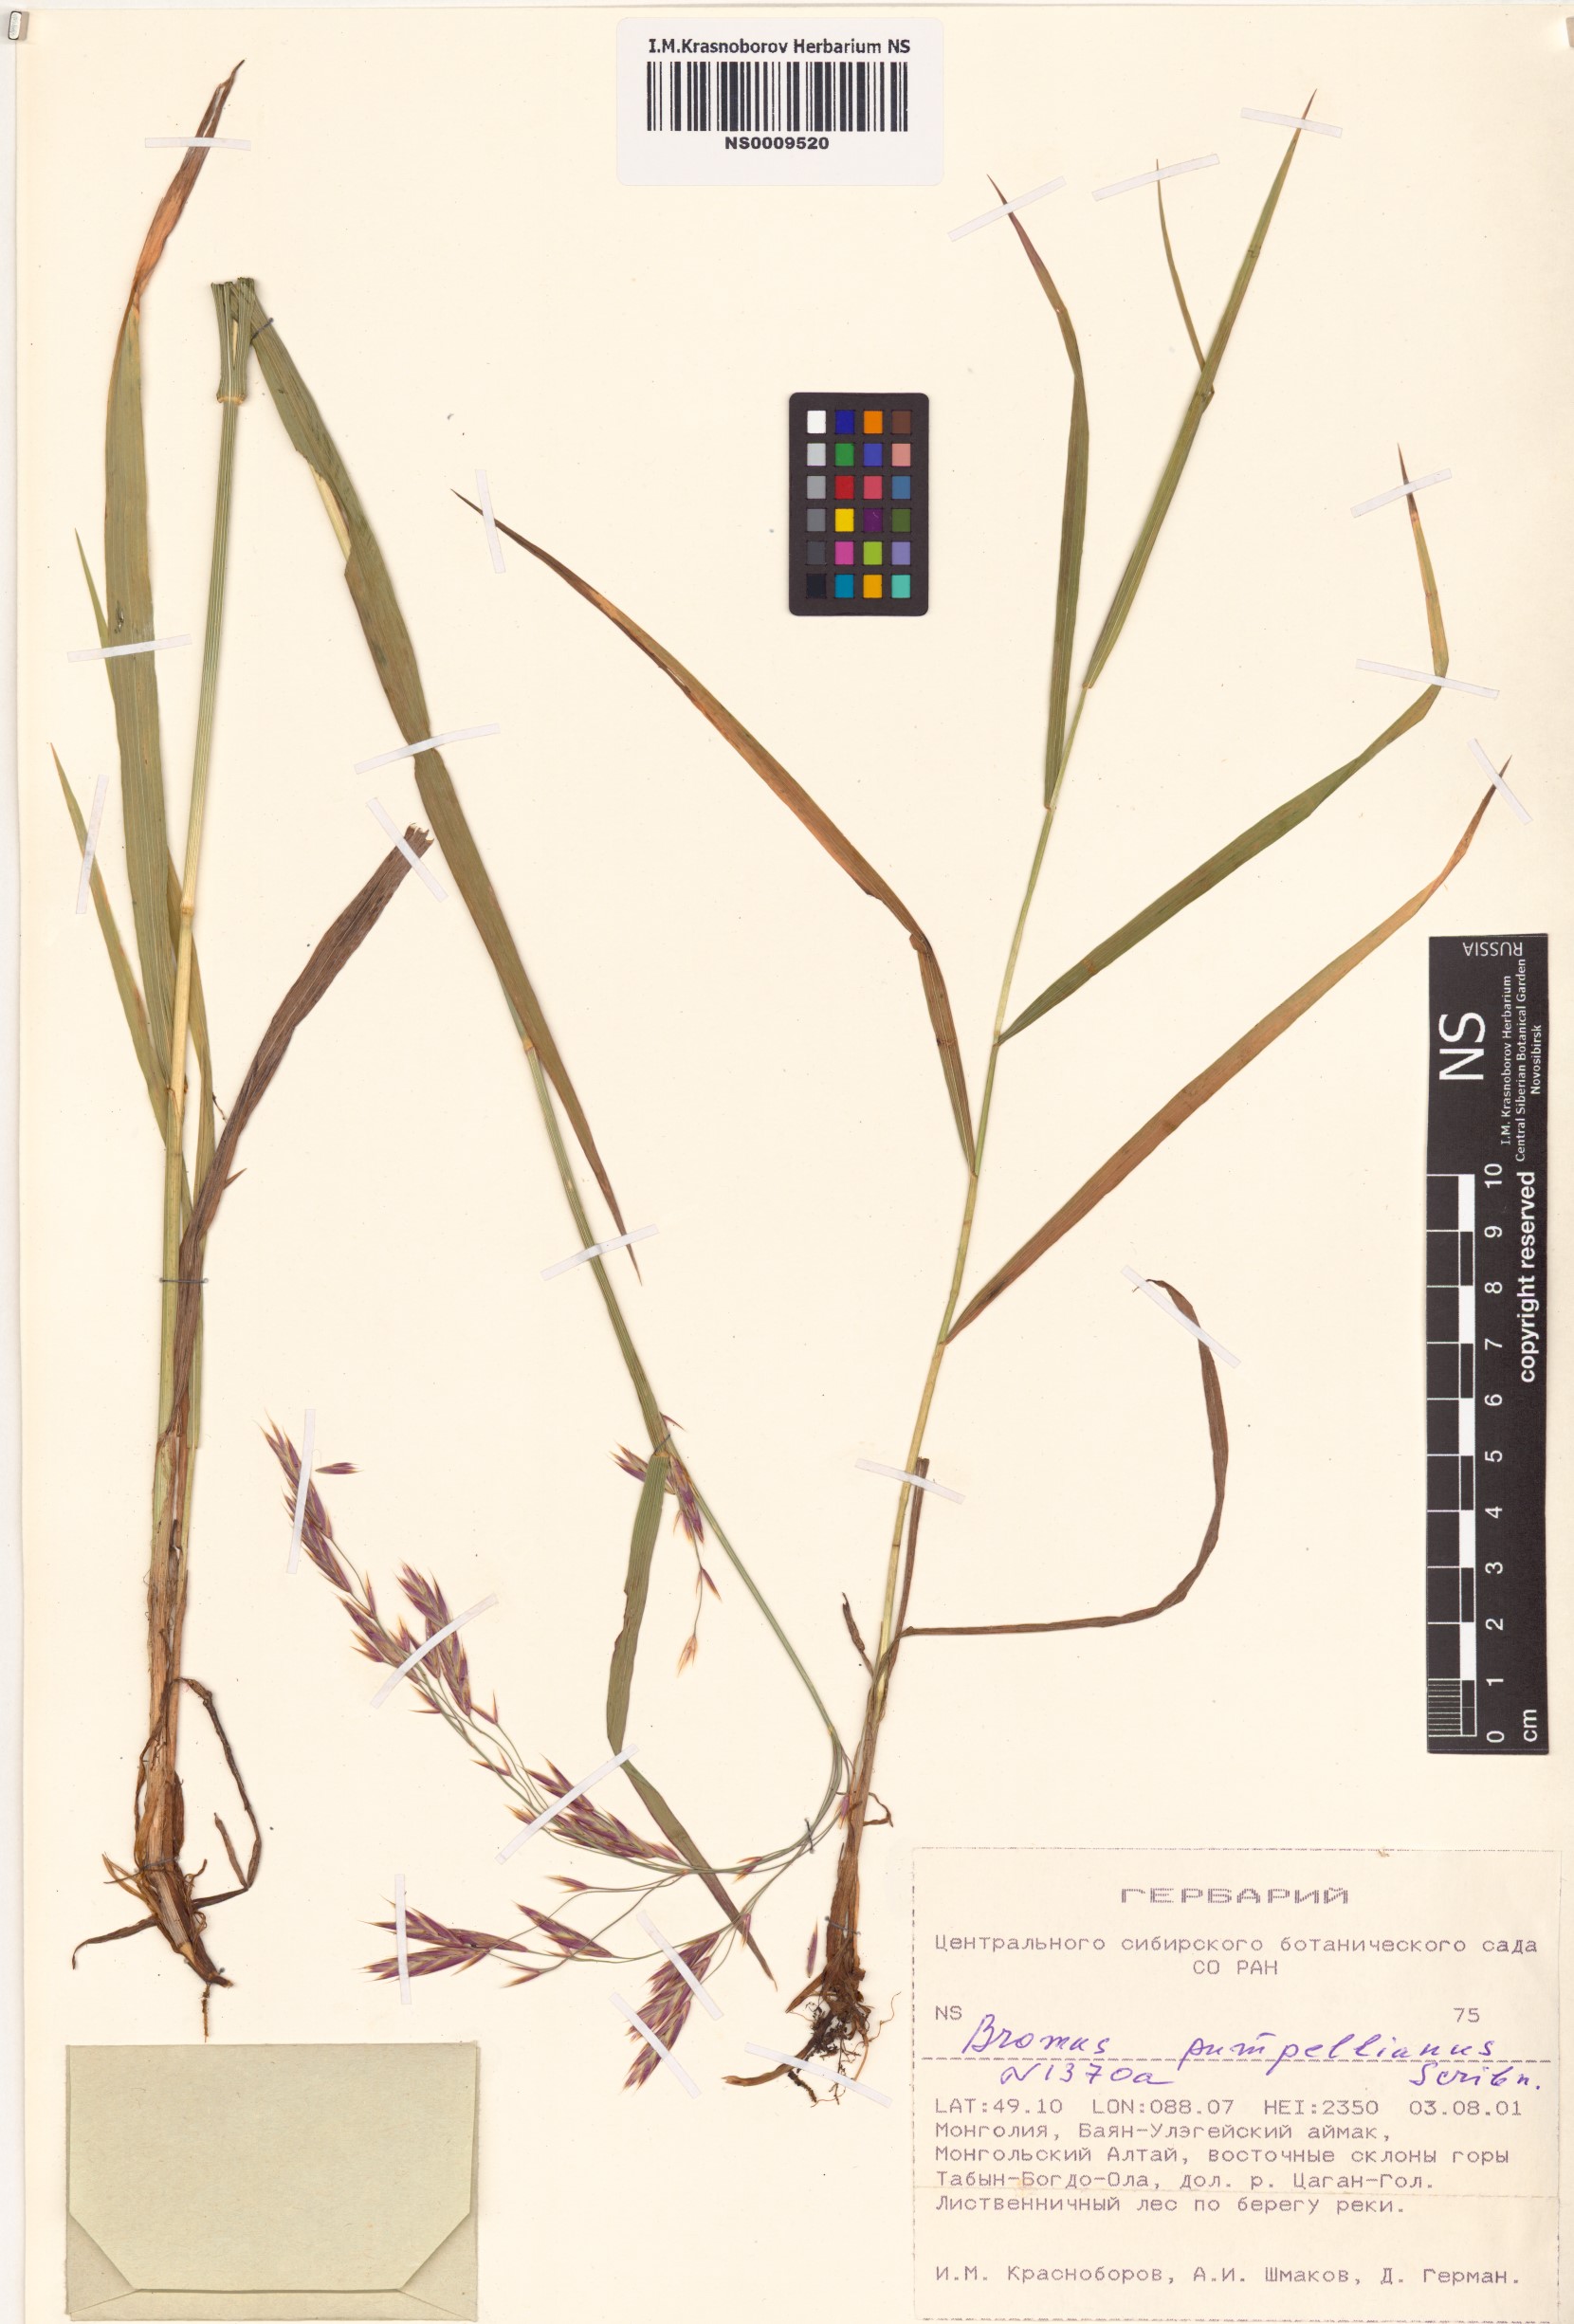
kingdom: Plantae
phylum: Tracheophyta
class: Liliopsida
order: Poales
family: Poaceae
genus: Bromus
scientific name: Bromus pumpellianus
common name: Pumpelly's brome
